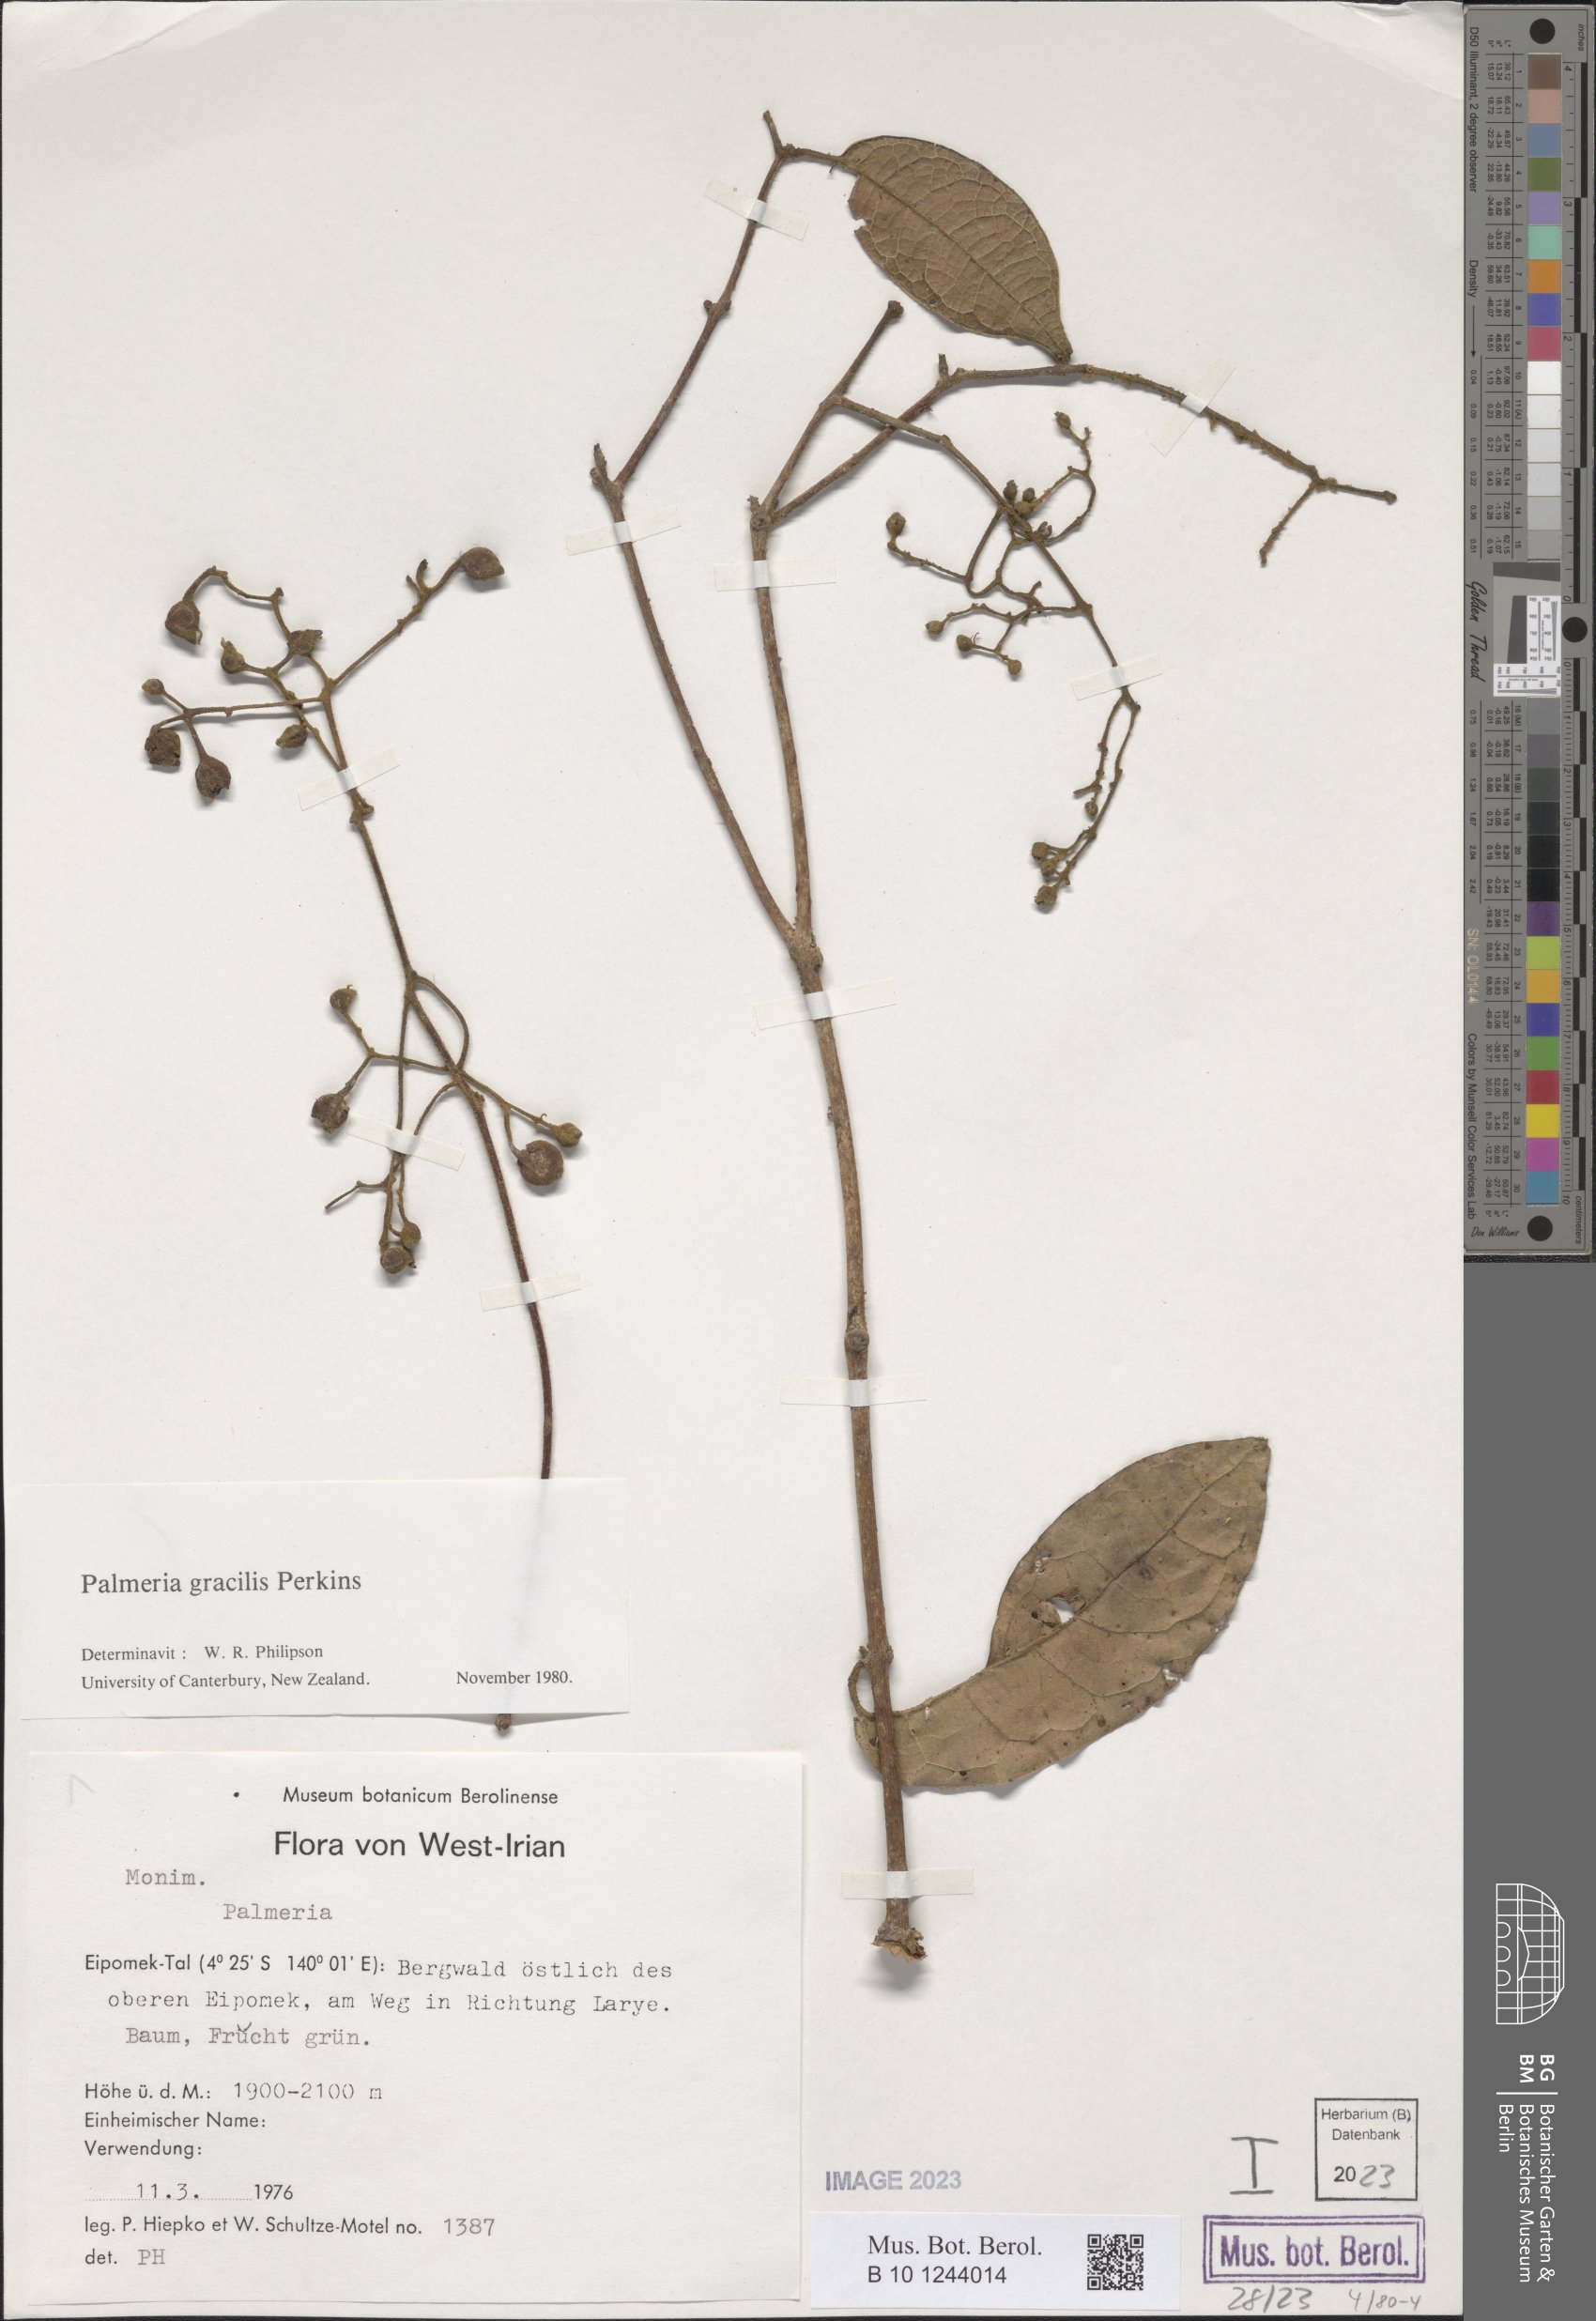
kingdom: Plantae
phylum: Tracheophyta
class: Magnoliopsida
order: Laurales
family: Monimiaceae
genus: Palmeria
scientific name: Palmeria gracilis
